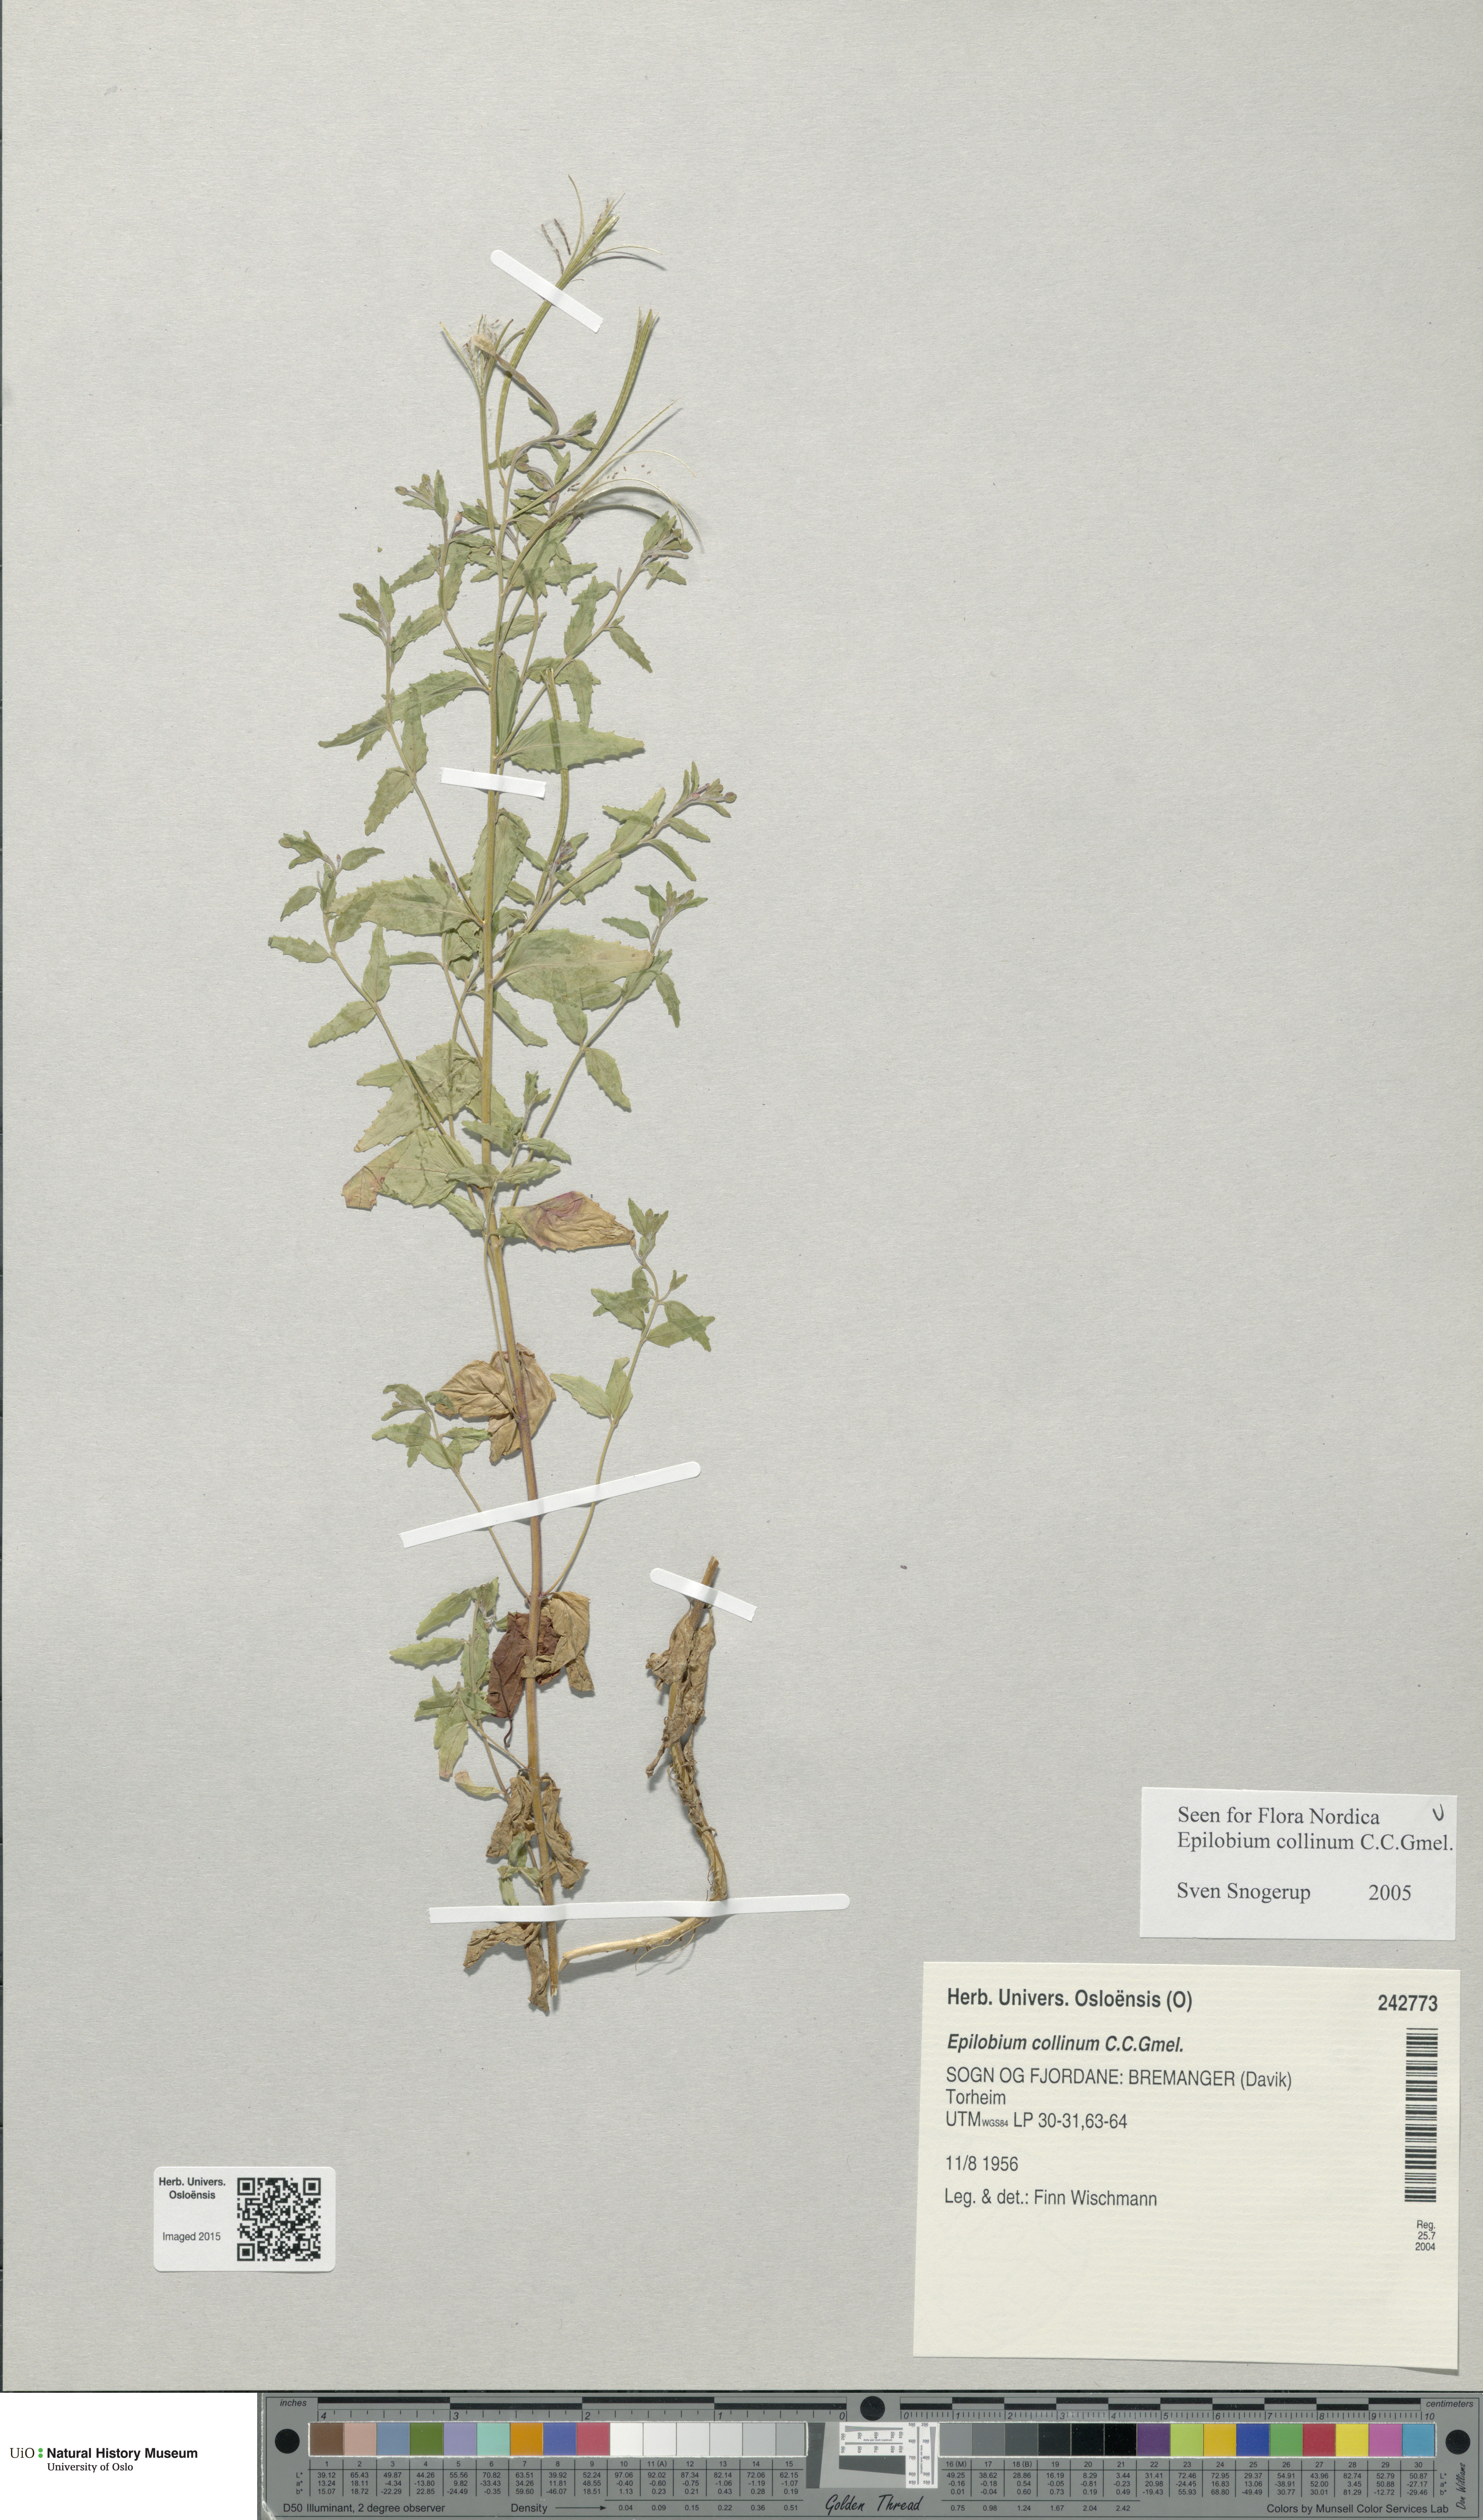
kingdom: Plantae
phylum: Tracheophyta
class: Magnoliopsida
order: Myrtales
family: Onagraceae
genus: Epilobium
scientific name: Epilobium collinum
